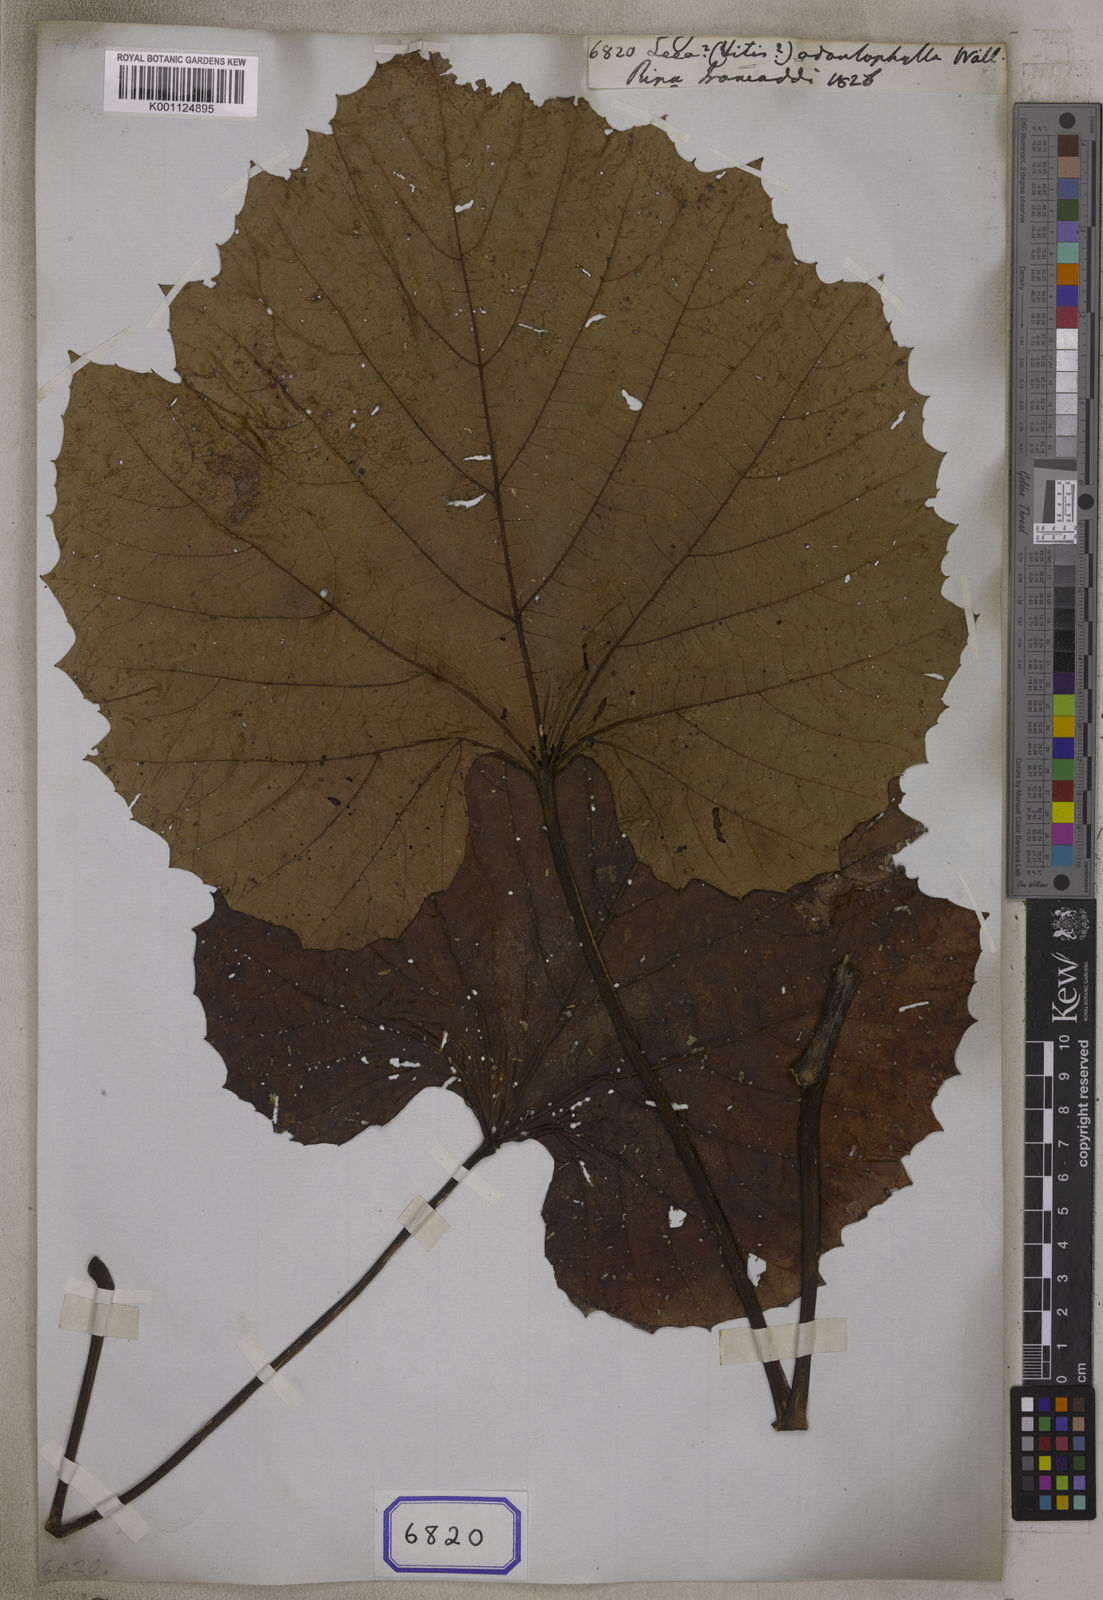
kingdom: Plantae
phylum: Tracheophyta
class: Magnoliopsida
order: Vitales
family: Vitaceae
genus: Vitis
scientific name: Vitis heyneana
